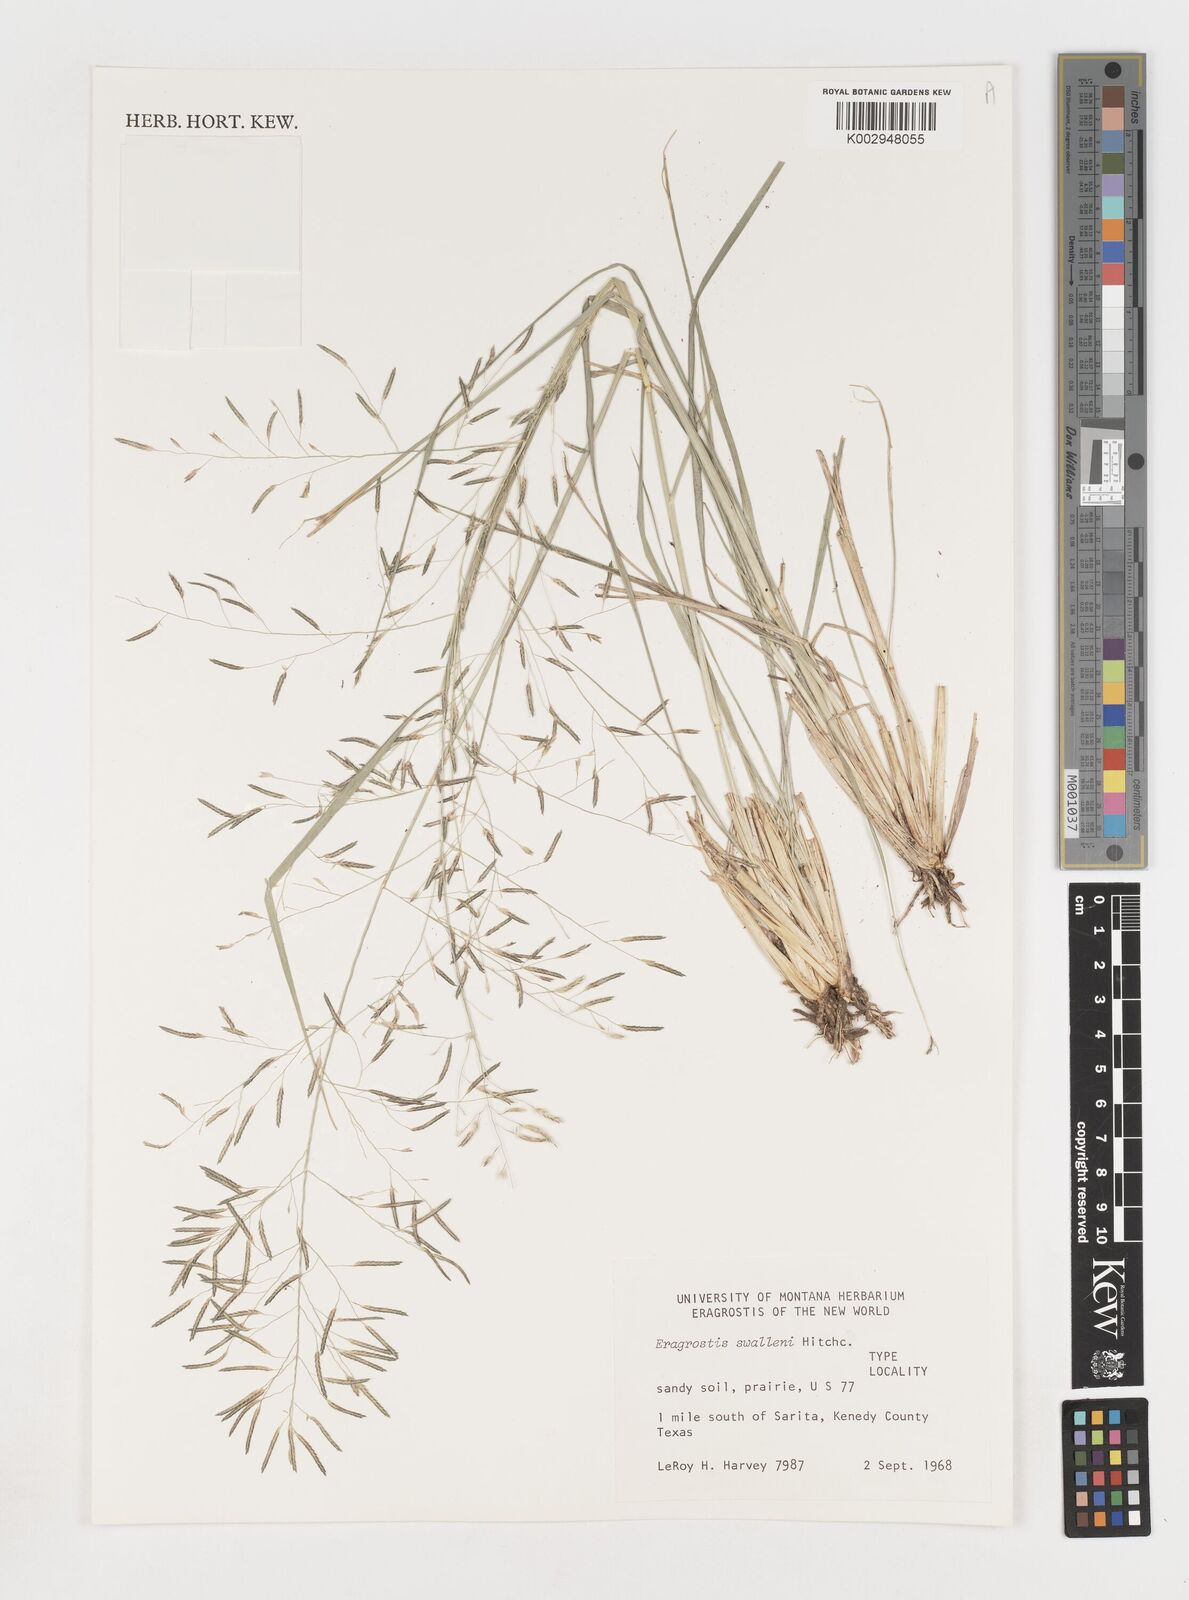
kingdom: Plantae
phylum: Tracheophyta
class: Liliopsida
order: Poales
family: Poaceae
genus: Eragrostis
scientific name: Eragrostis swallenii
